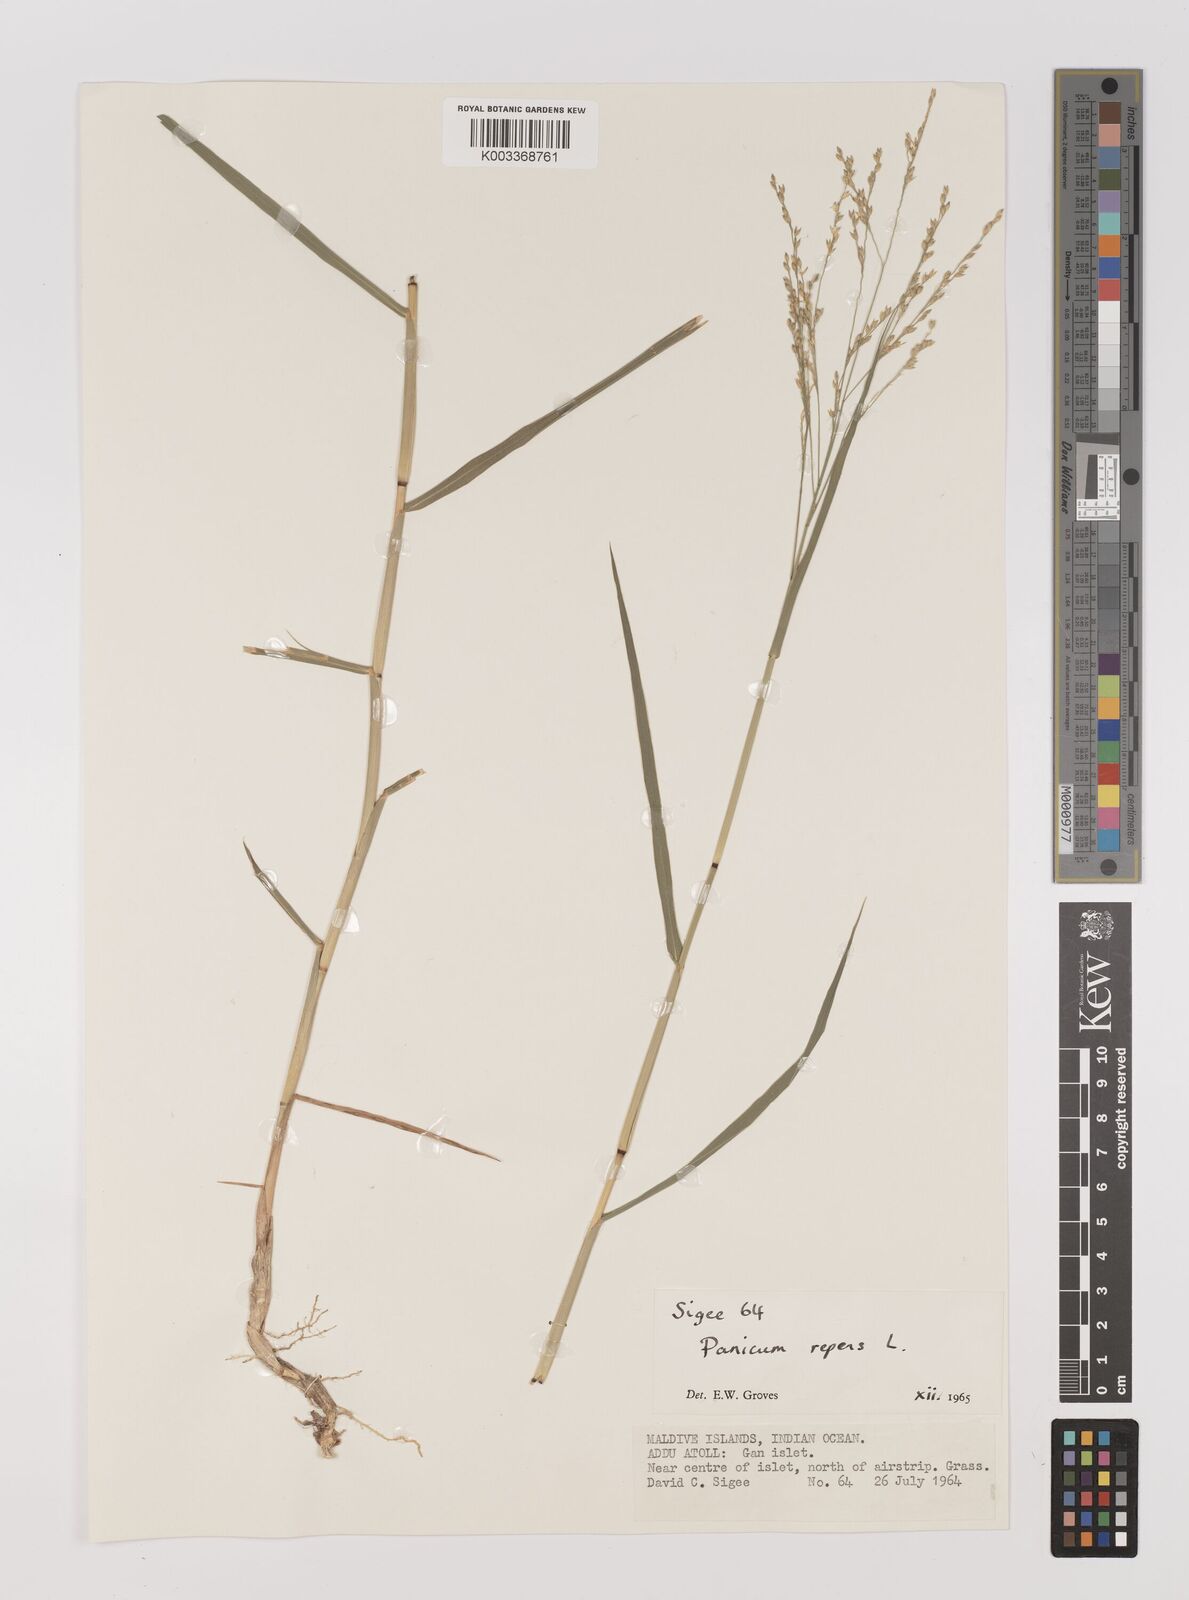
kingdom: Plantae
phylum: Tracheophyta
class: Liliopsida
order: Poales
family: Poaceae
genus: Panicum
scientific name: Panicum repens
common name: Torpedo grass
